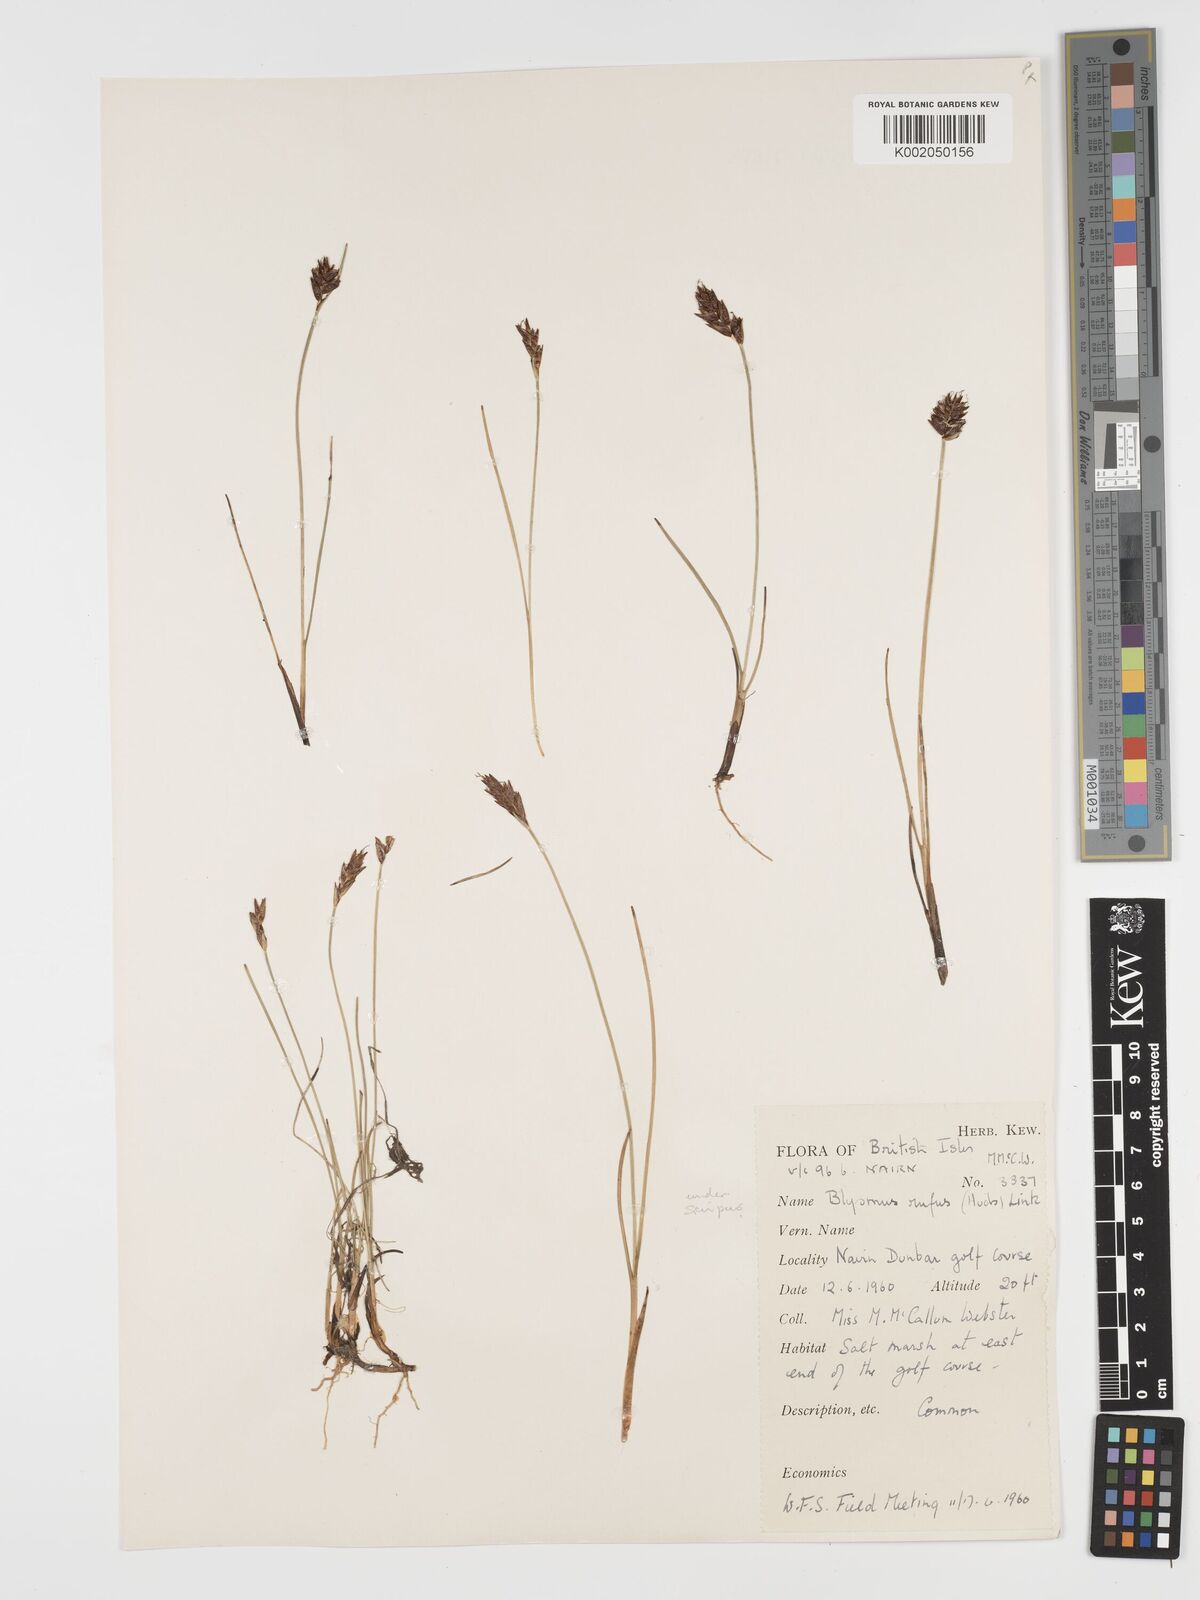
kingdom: Plantae
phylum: Tracheophyta
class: Liliopsida
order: Poales
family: Cyperaceae
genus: Blysmus
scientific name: Blysmus rufus
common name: Saltmarsh flat-sedge
